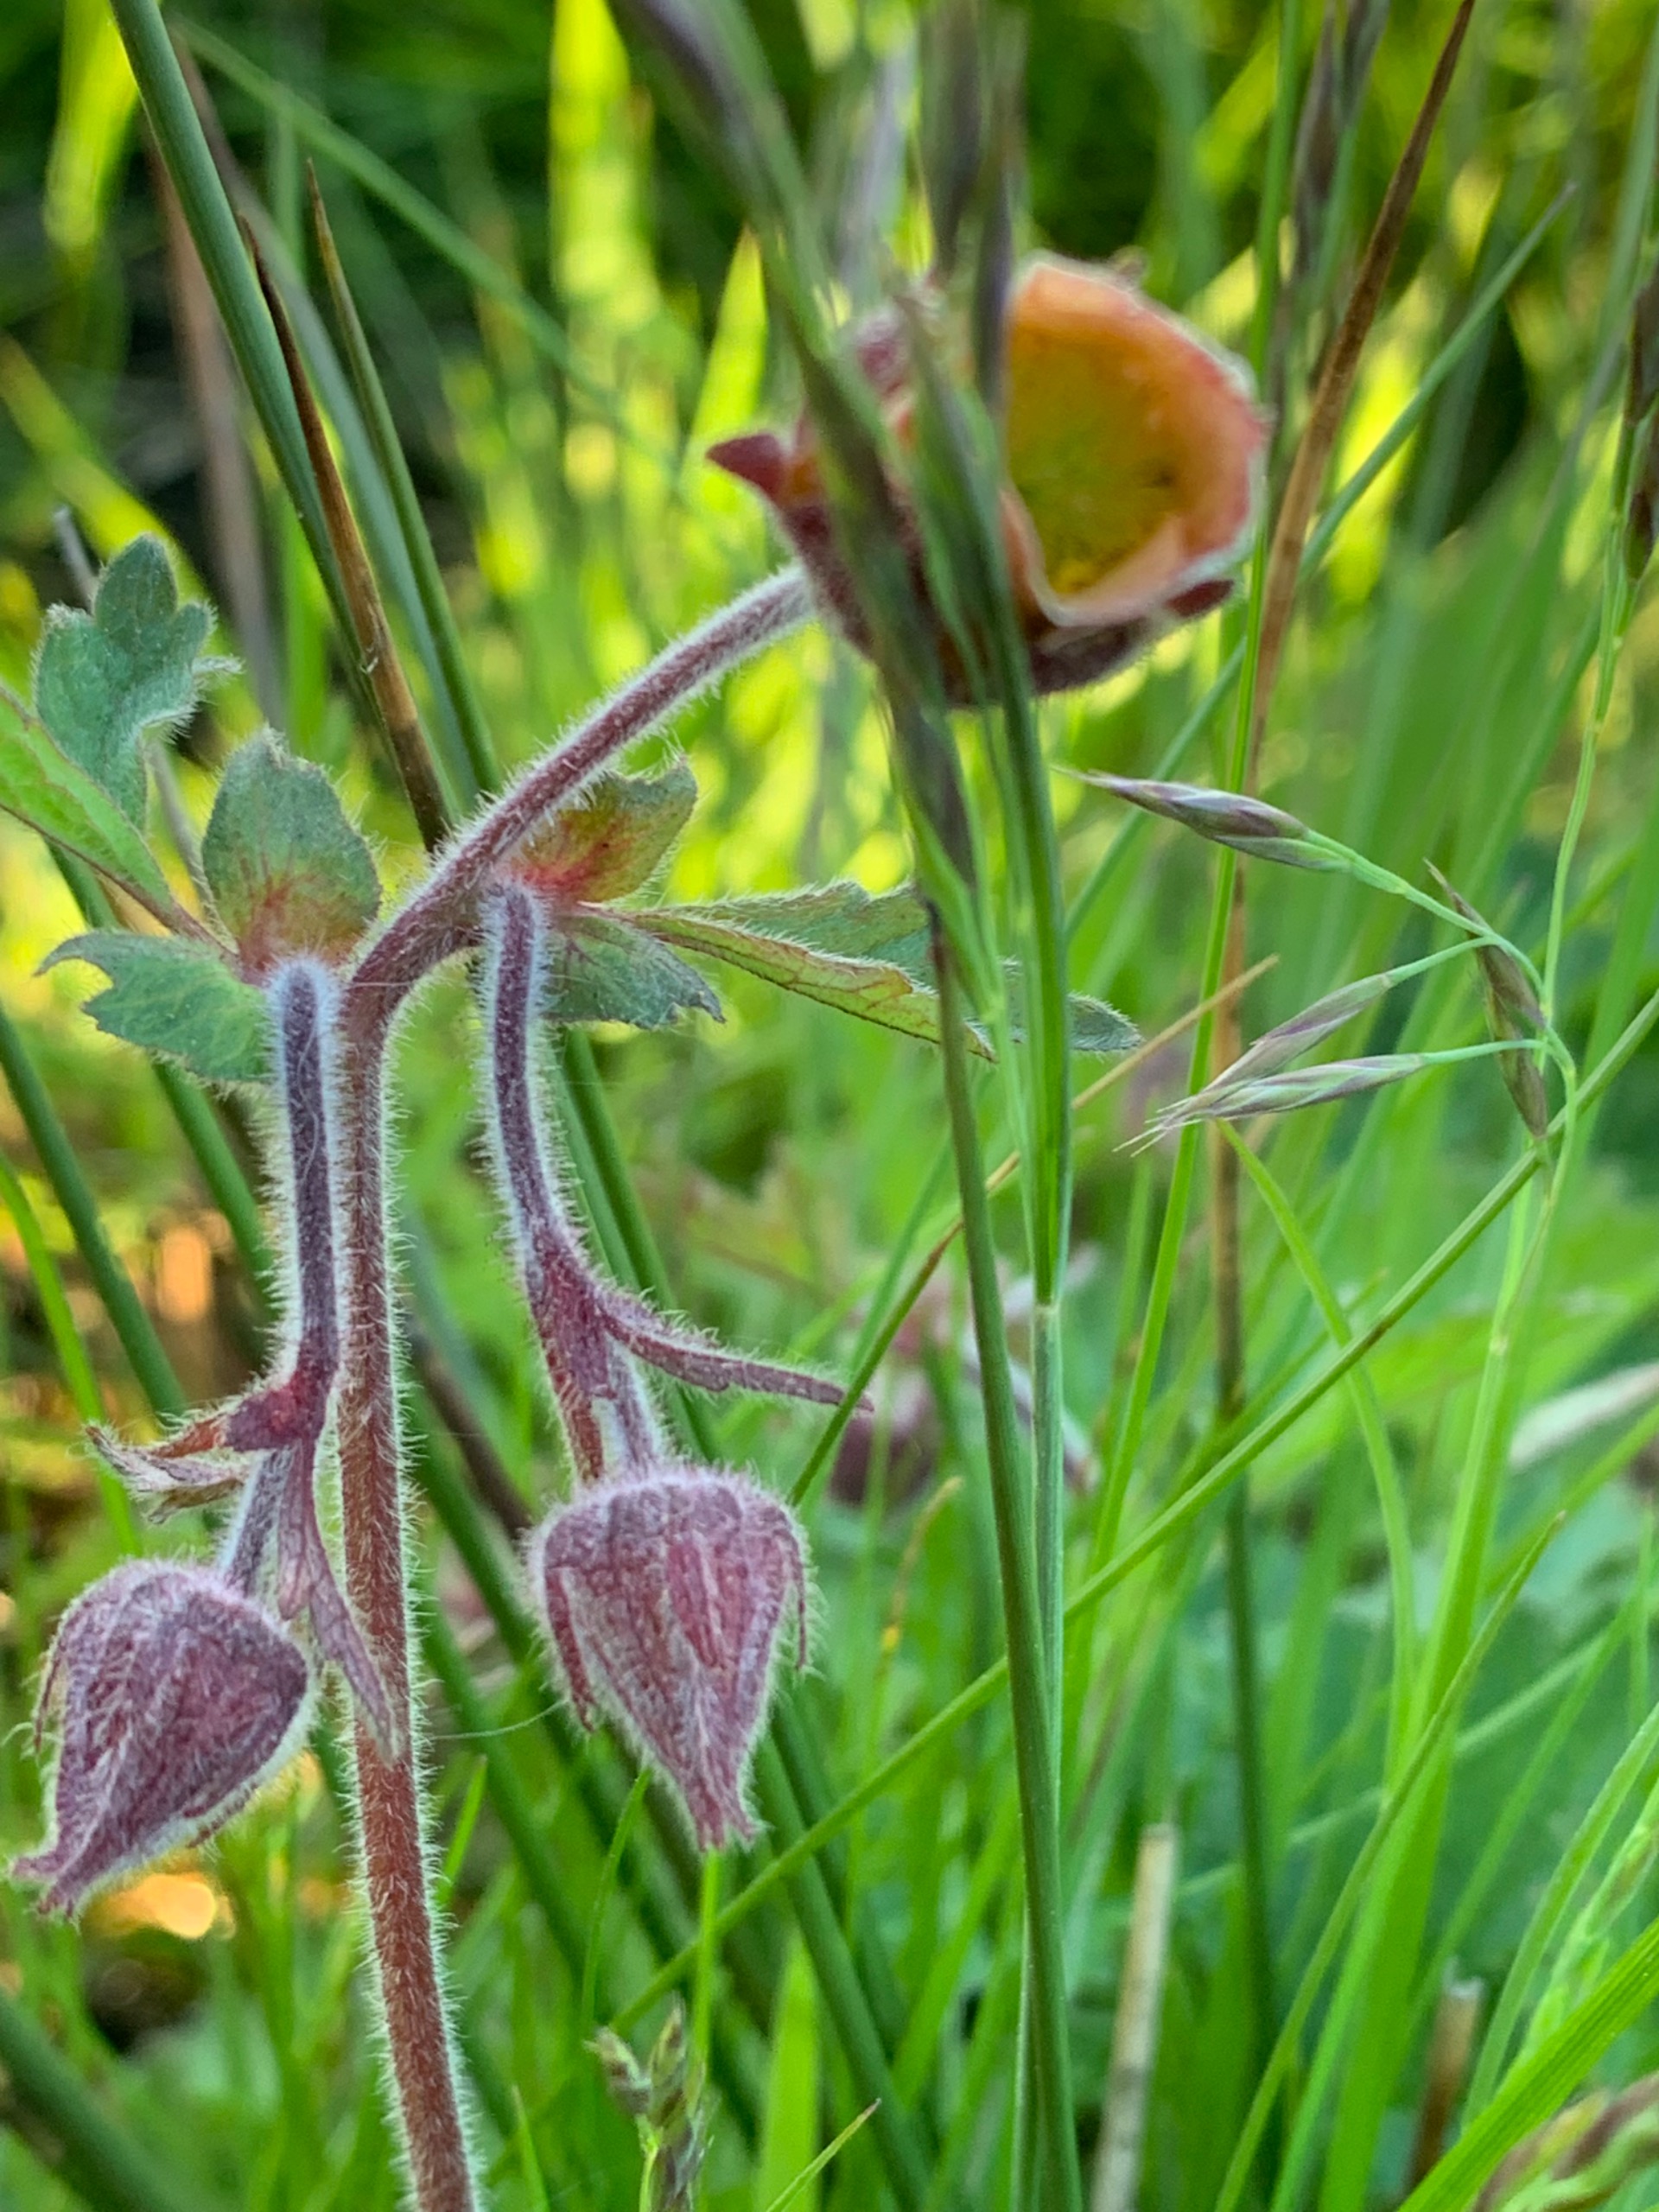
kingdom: Plantae
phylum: Tracheophyta
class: Magnoliopsida
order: Rosales
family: Rosaceae
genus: Geum
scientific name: Geum rivale
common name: Eng-nellikerod
